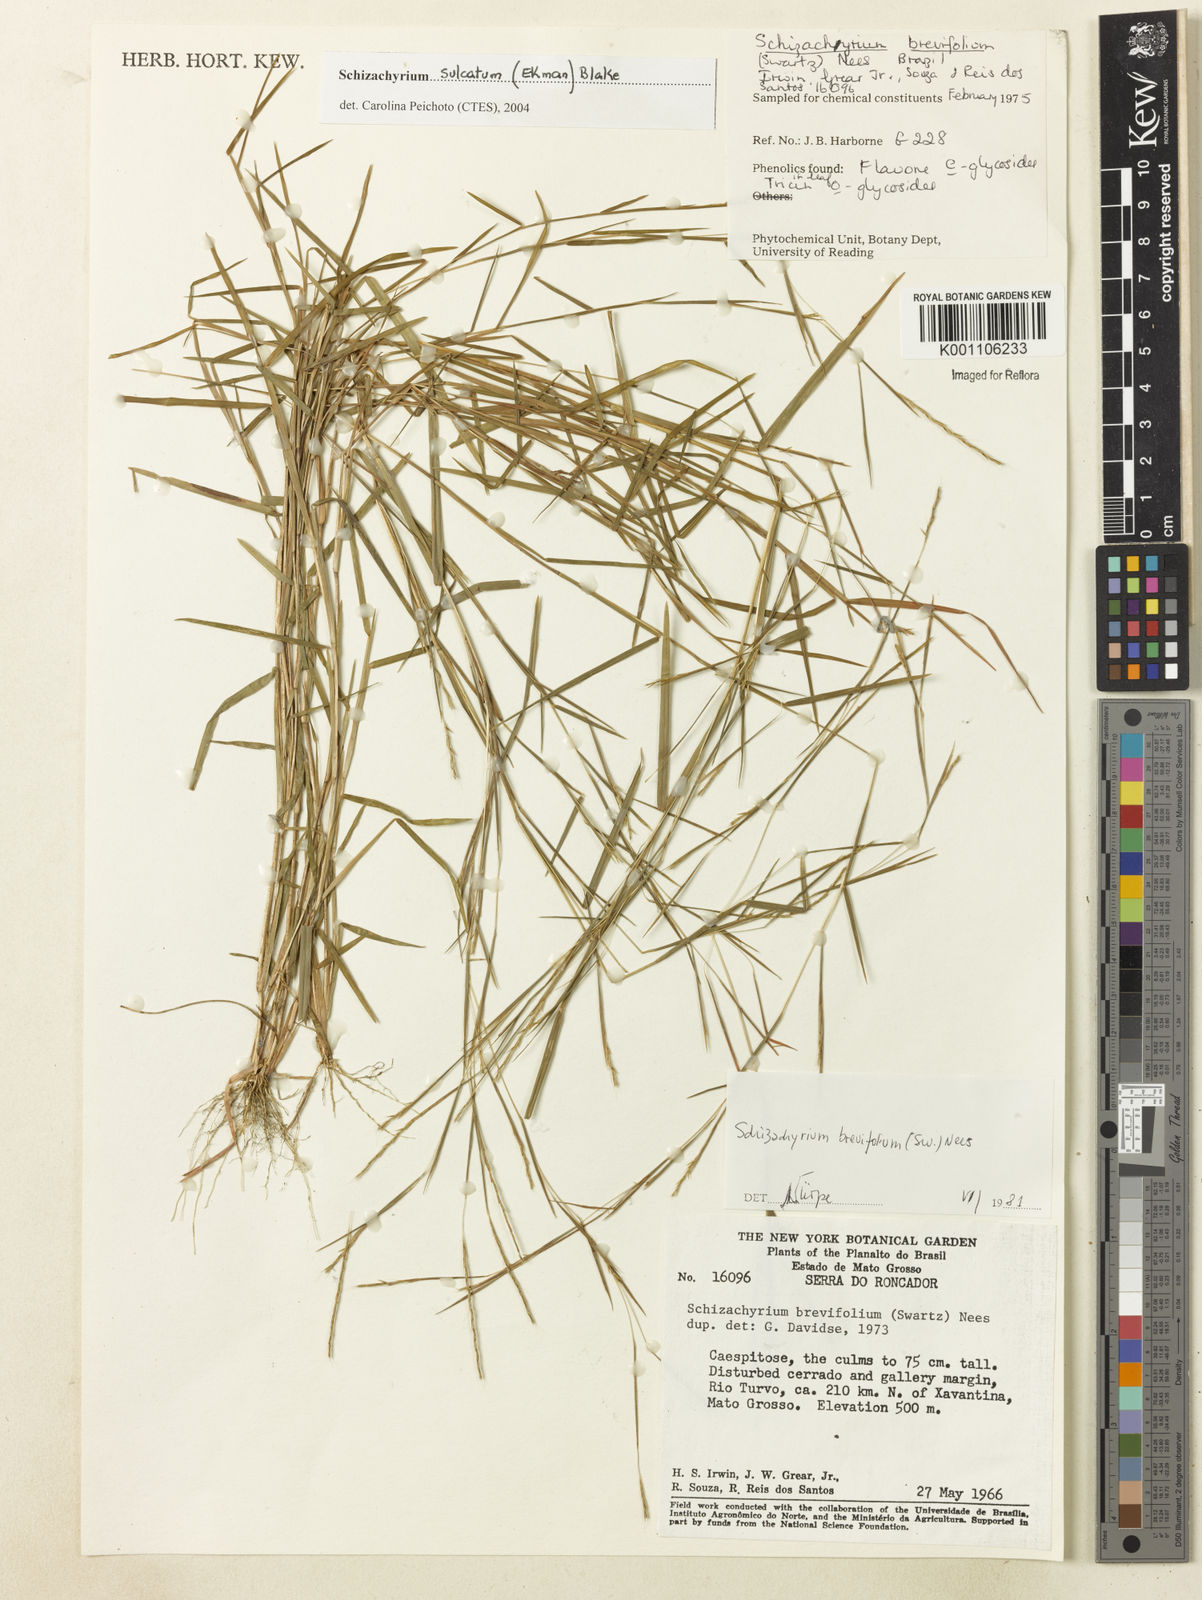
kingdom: Plantae
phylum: Tracheophyta
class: Liliopsida
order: Poales
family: Poaceae
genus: Schizachyrium
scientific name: Schizachyrium sulcatum
